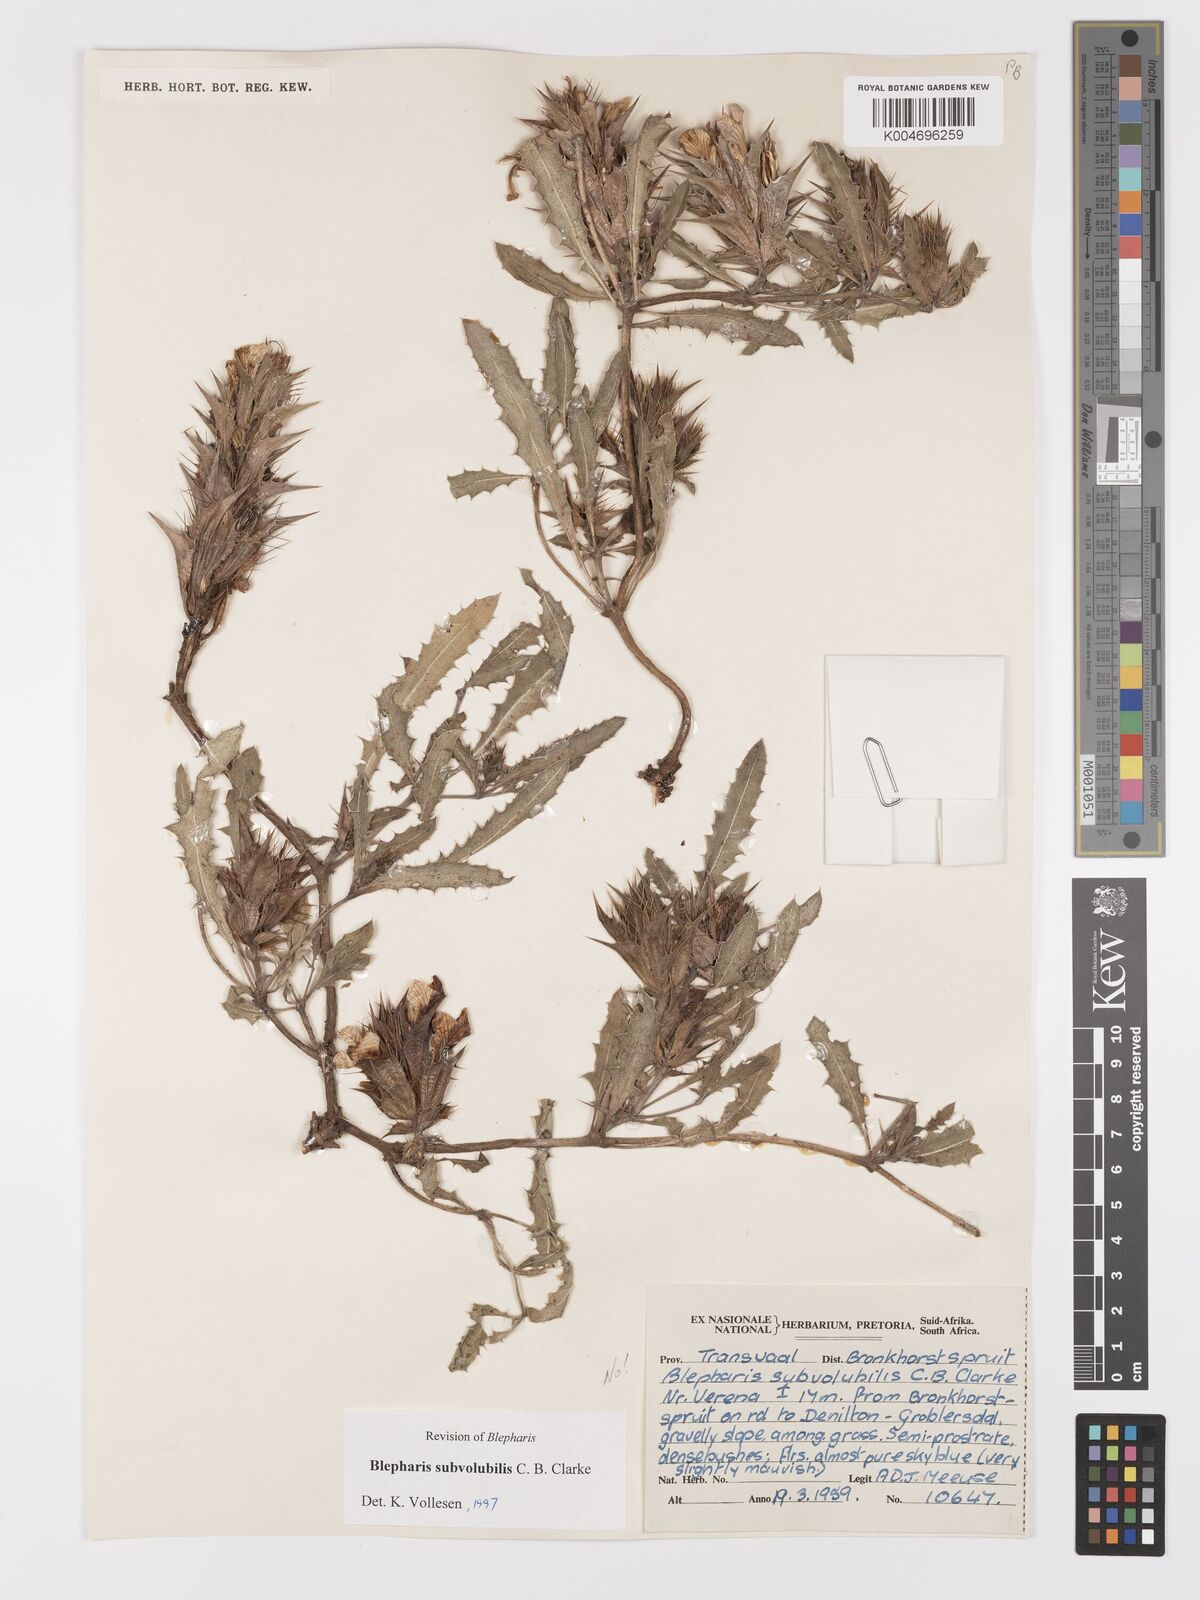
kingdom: Plantae
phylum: Tracheophyta
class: Magnoliopsida
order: Lamiales
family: Acanthaceae
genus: Blepharis
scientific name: Blepharis subvolubilis
